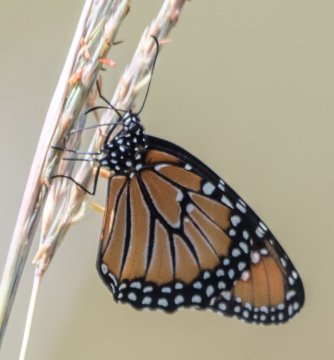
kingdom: Animalia
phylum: Arthropoda
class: Insecta
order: Lepidoptera
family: Nymphalidae
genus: Danaus
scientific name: Danaus plexippus
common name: Monarch
